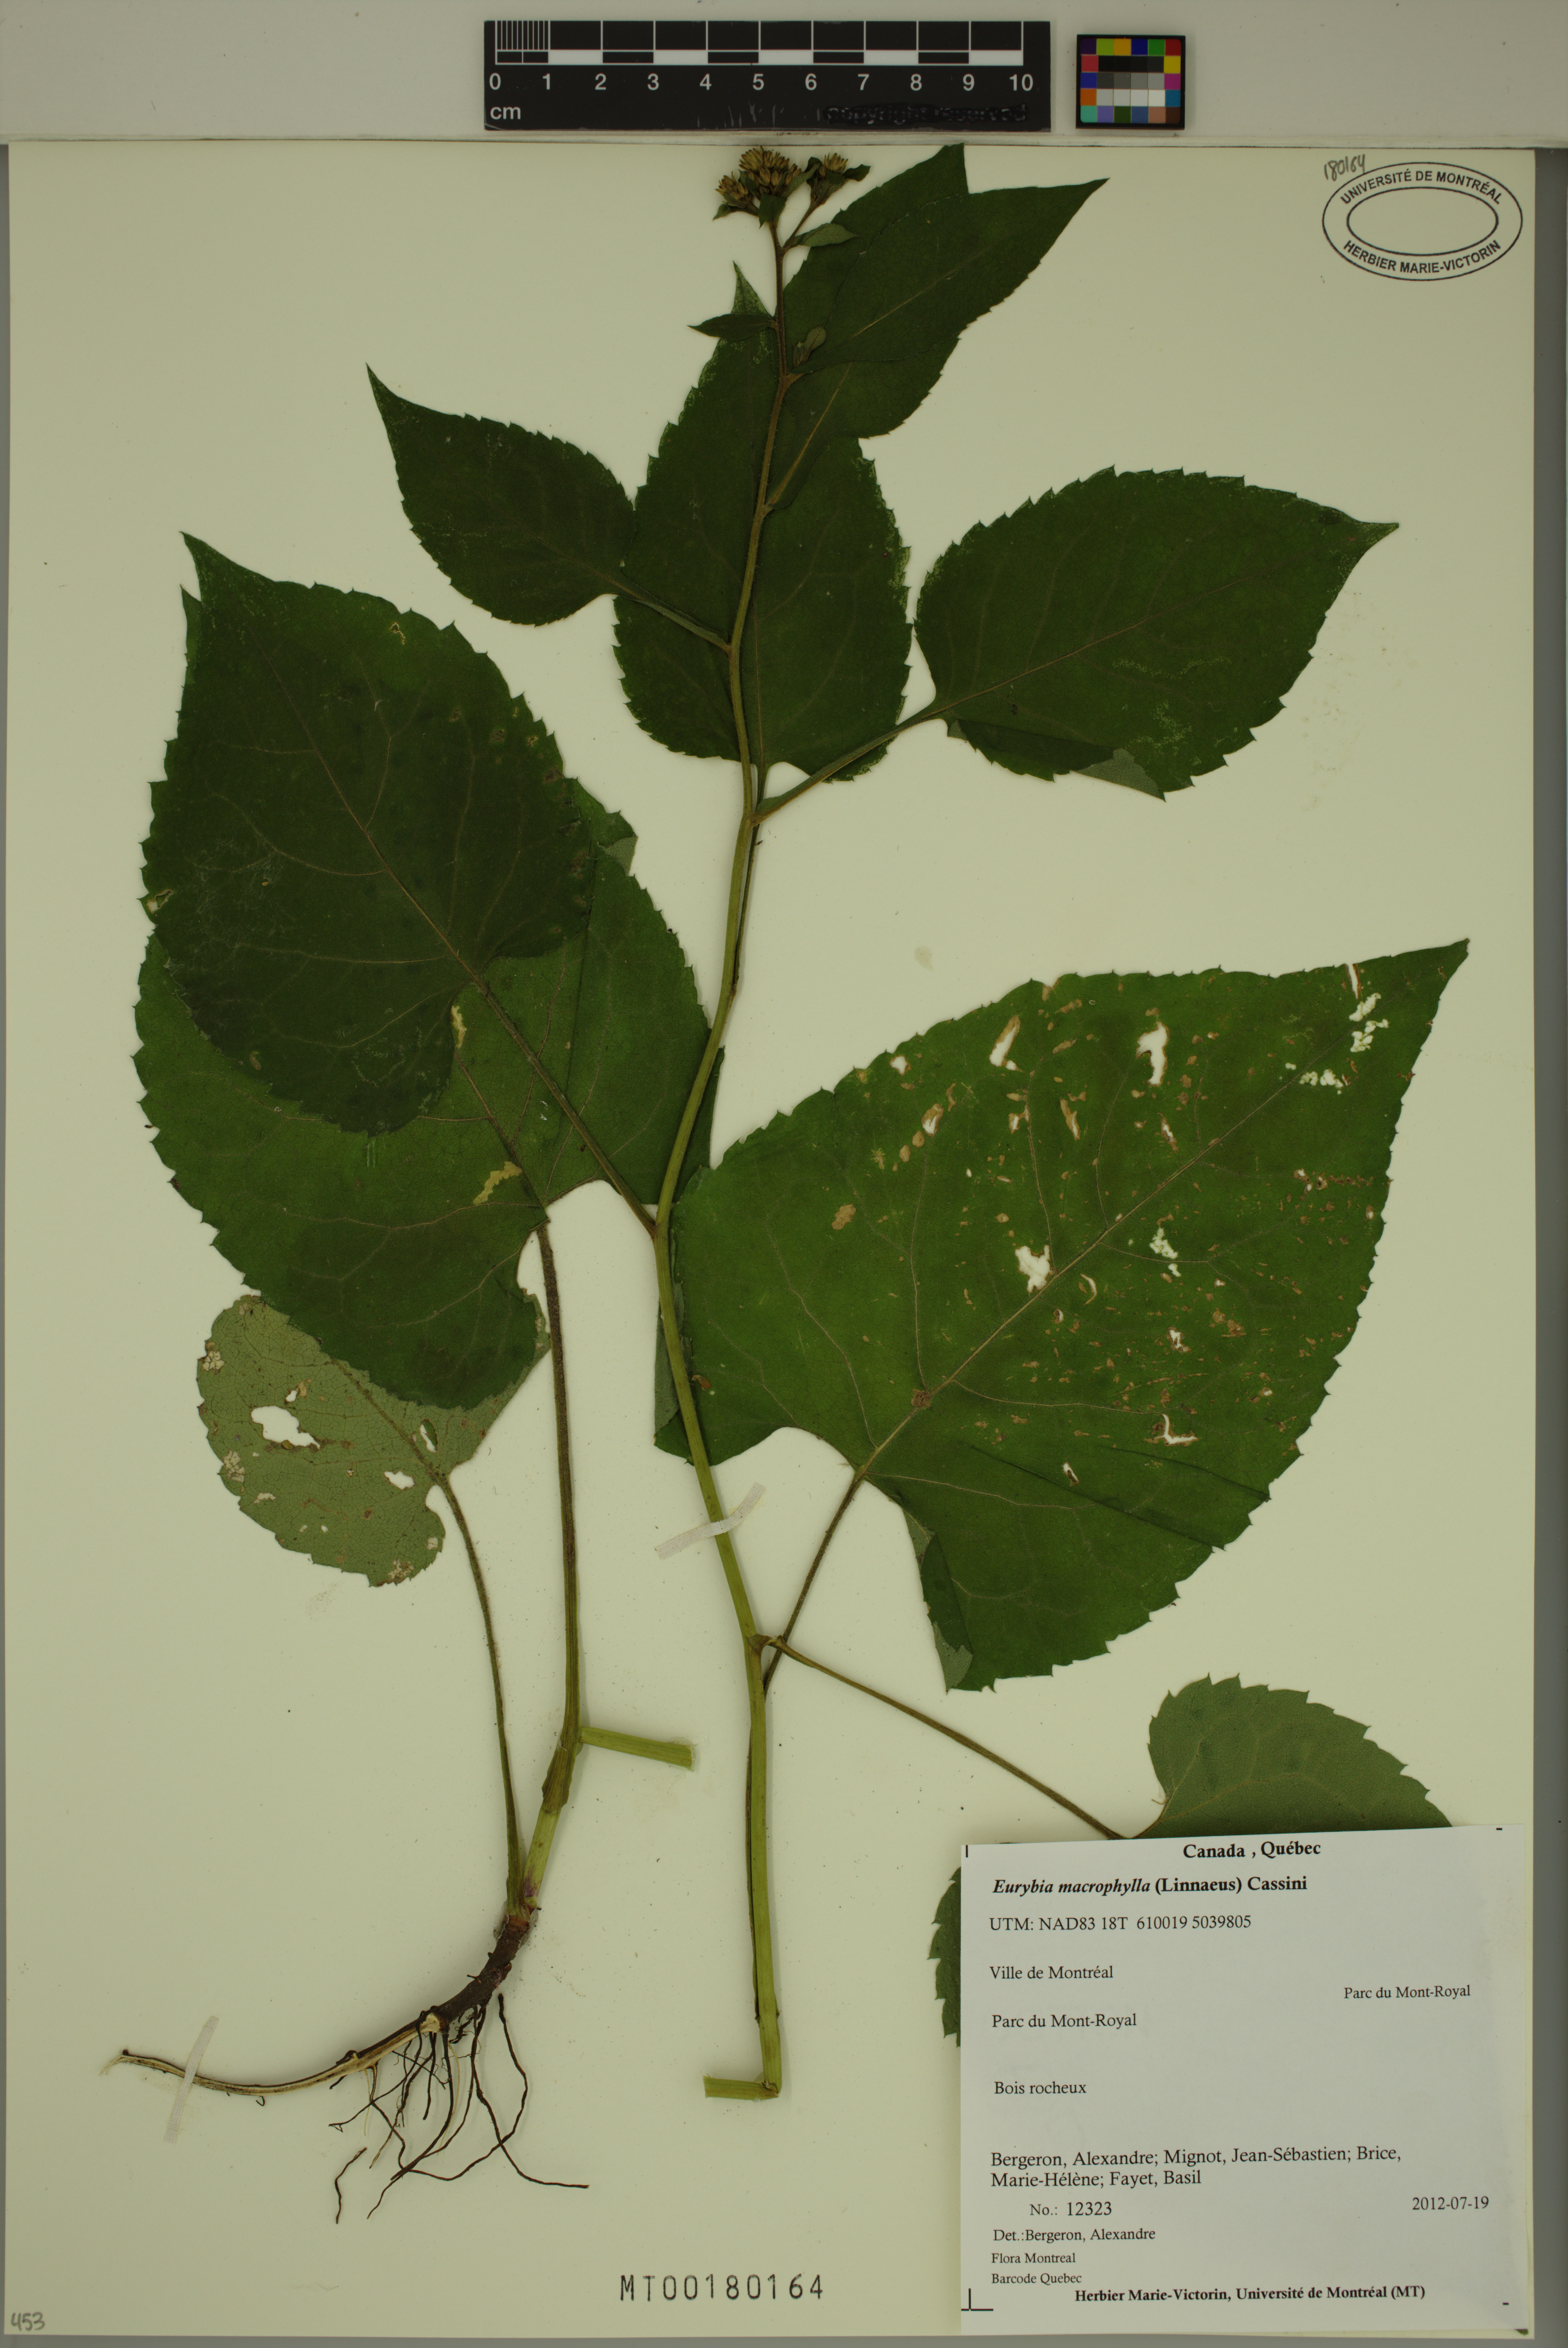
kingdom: Plantae
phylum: Tracheophyta
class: Magnoliopsida
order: Asterales
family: Asteraceae
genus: Eurybia
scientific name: Eurybia macrophylla
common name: Big-leaved aster
